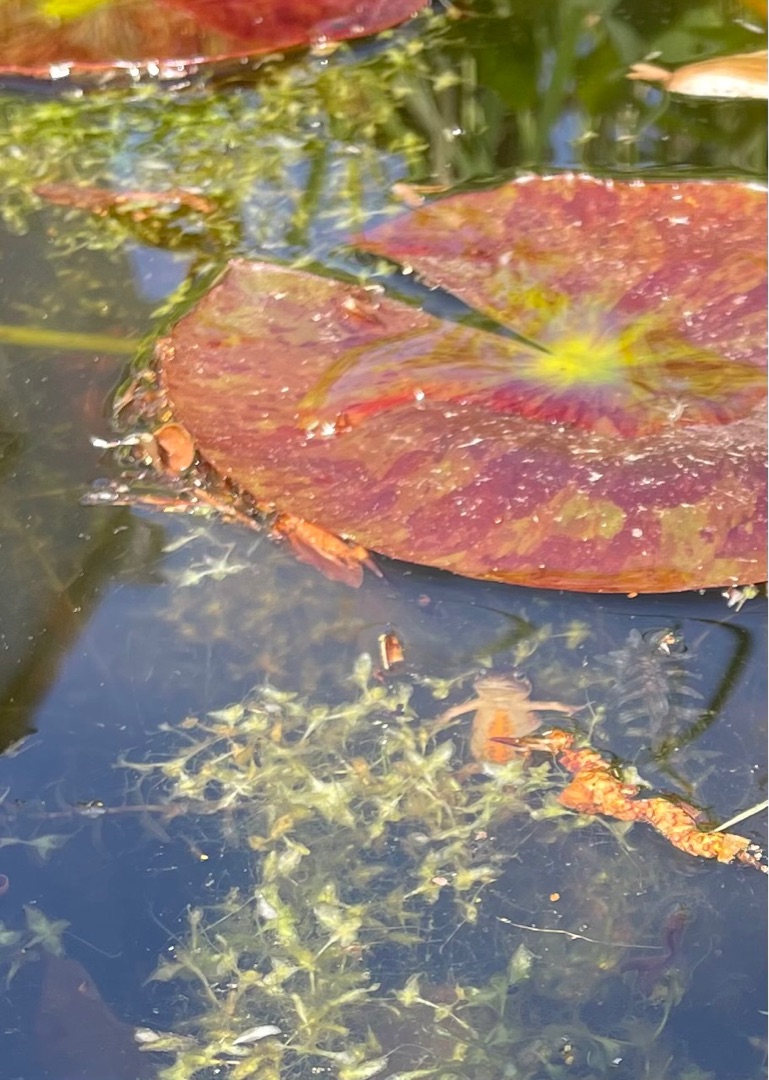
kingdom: Animalia
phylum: Chordata
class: Amphibia
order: Caudata
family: Salamandridae
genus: Lissotriton
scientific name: Lissotriton vulgaris
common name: Lille vandsalamander
